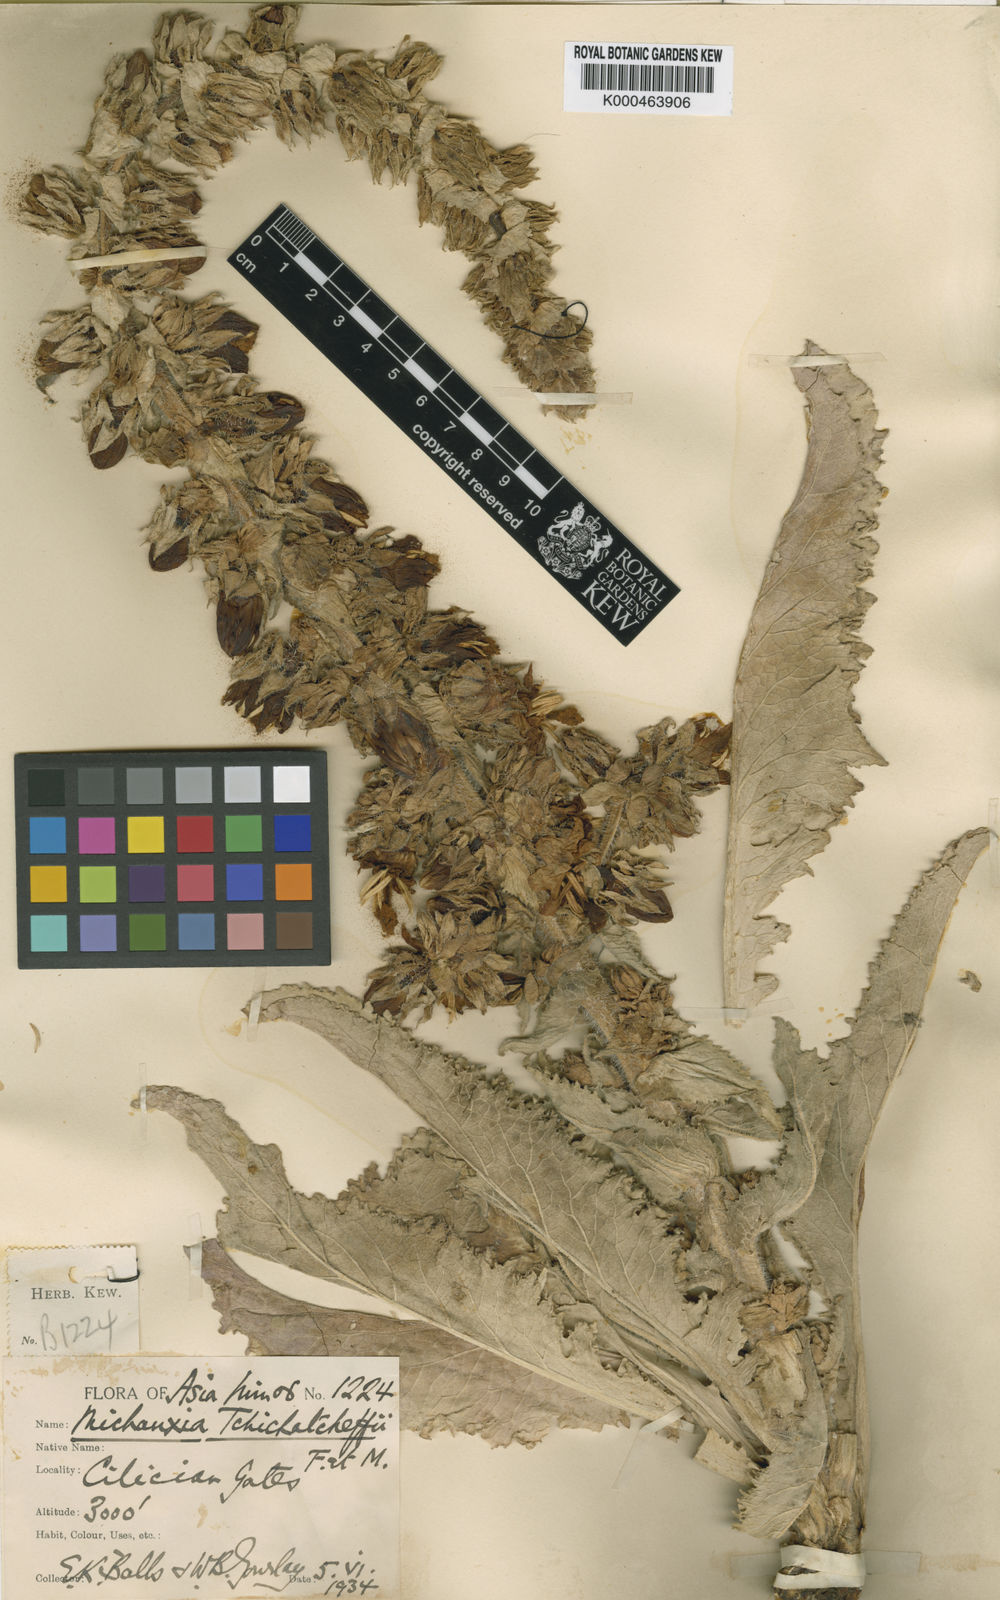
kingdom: Plantae
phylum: Tracheophyta
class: Magnoliopsida
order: Asterales
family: Campanulaceae
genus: Michauxia
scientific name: Michauxia tchihatcheffii
